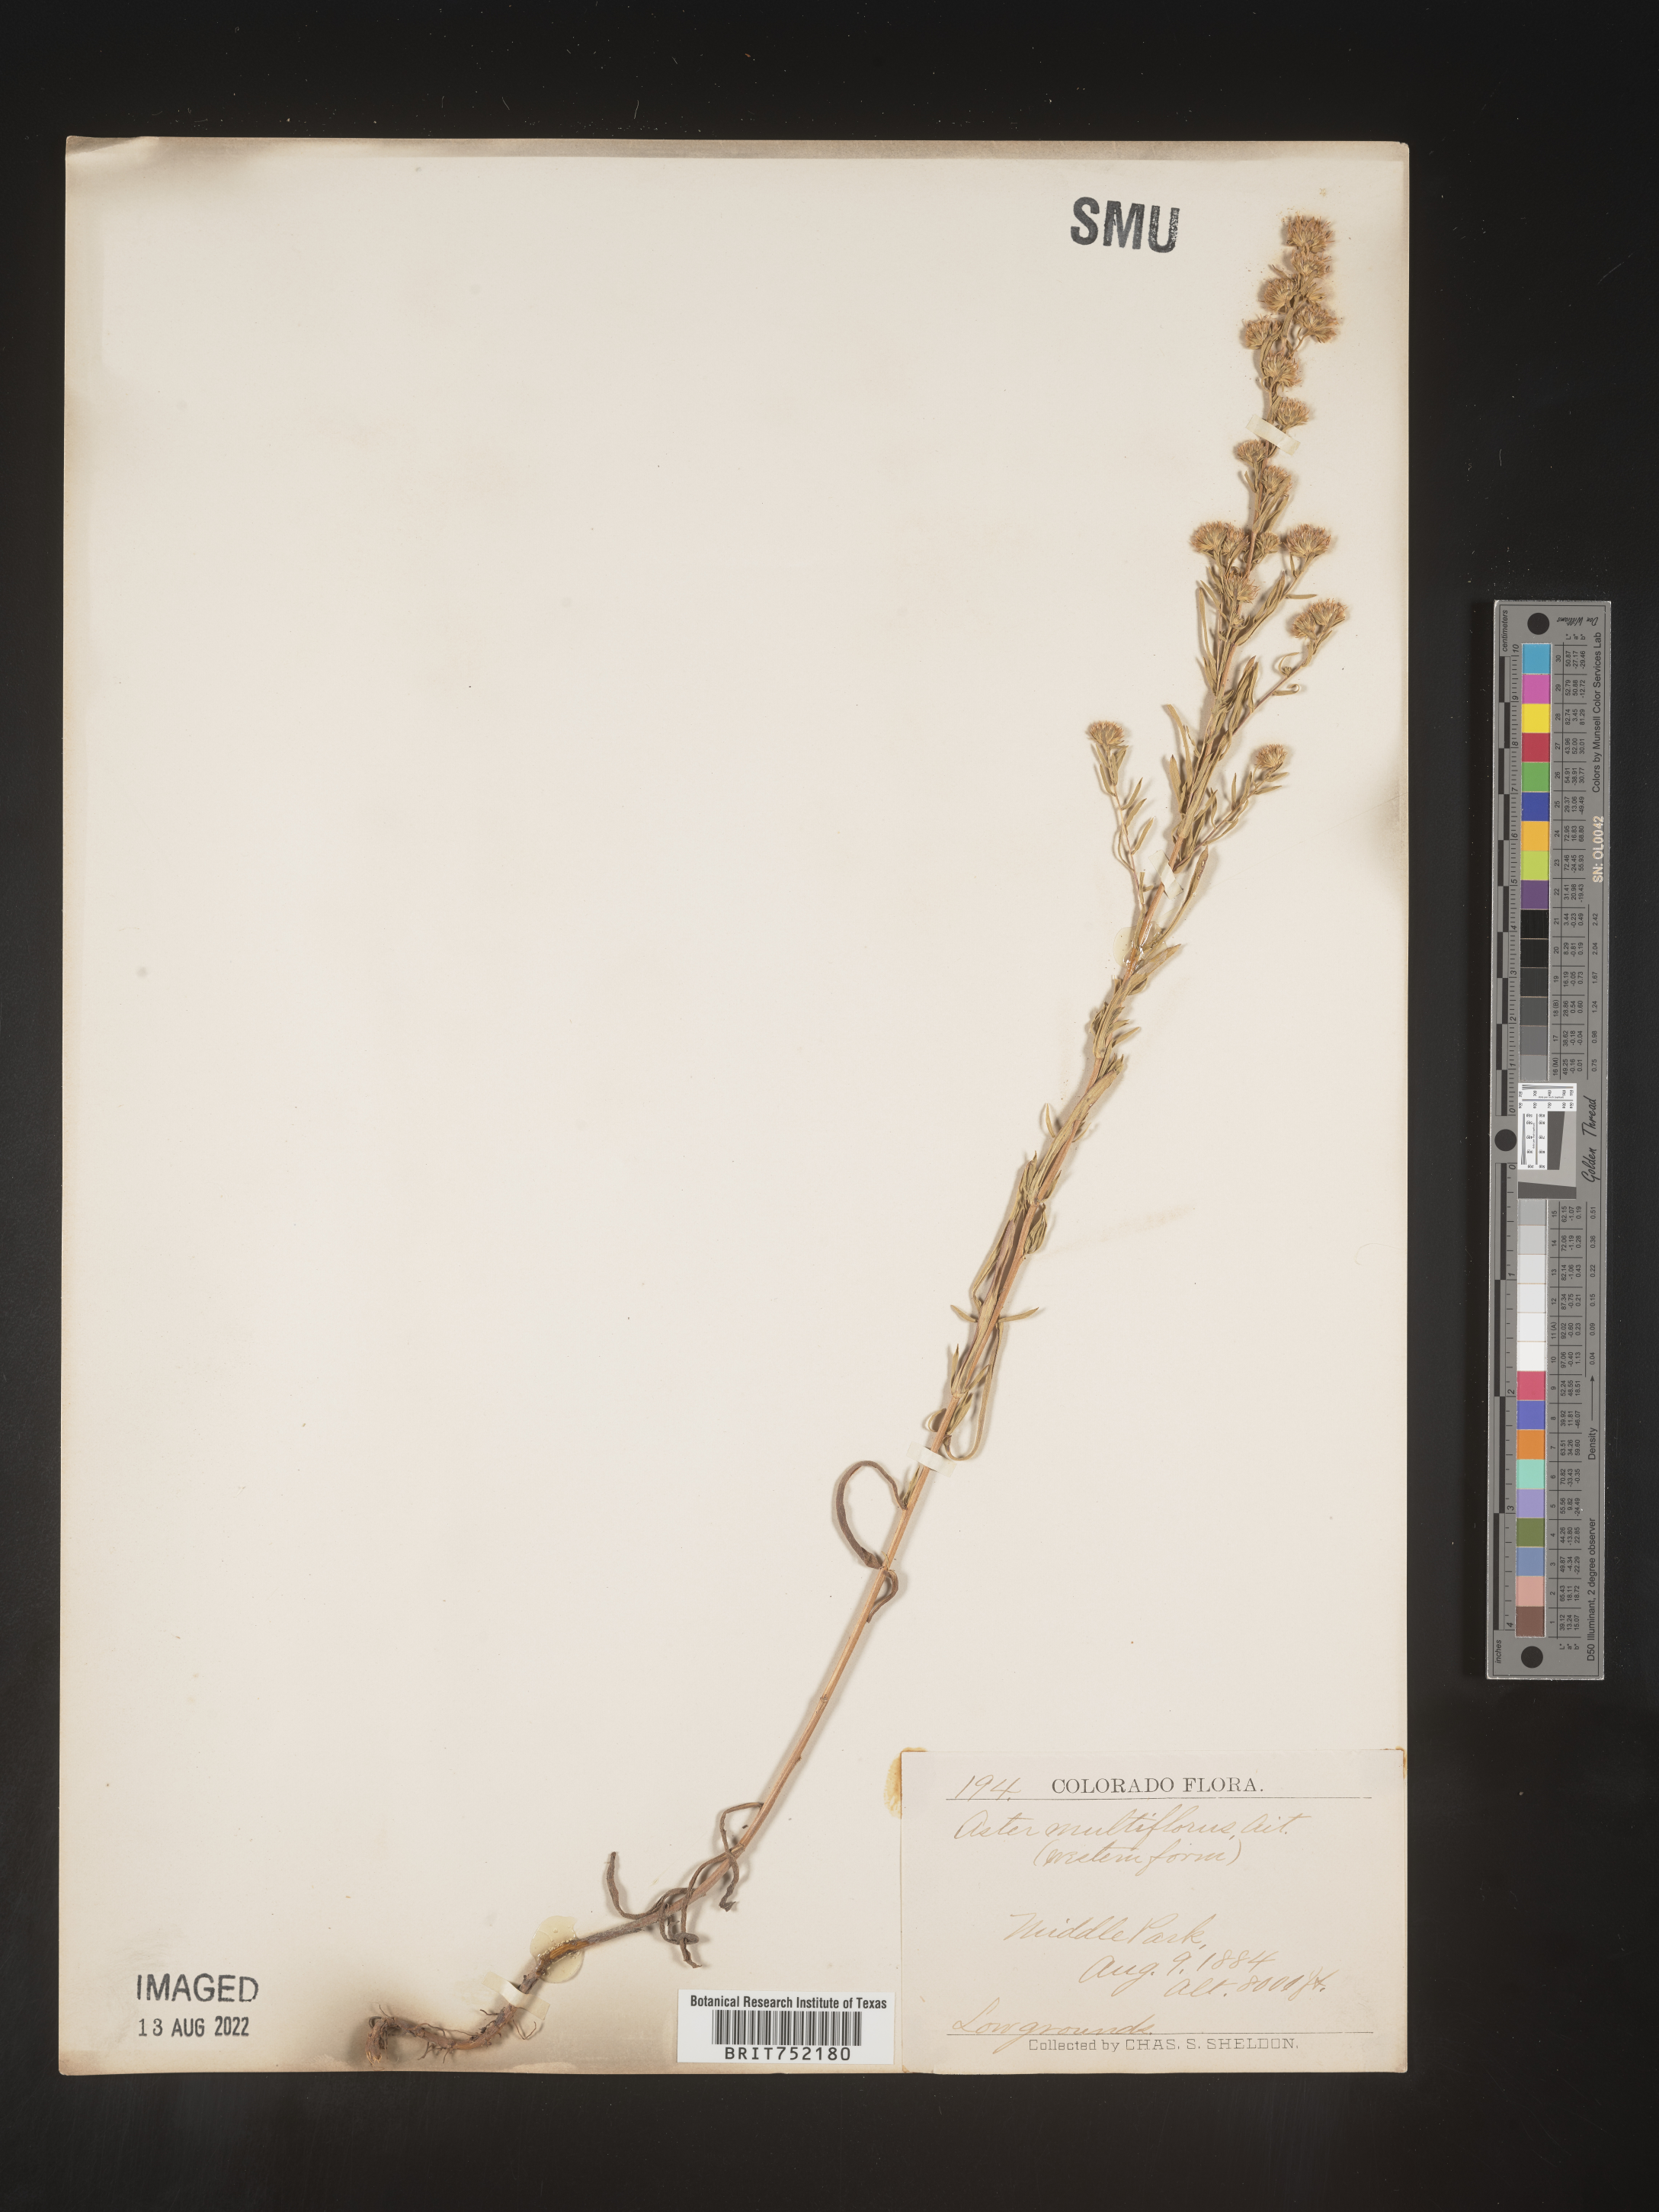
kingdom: Plantae
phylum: Tracheophyta
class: Magnoliopsida
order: Asterales
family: Asteraceae
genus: Symphyotrichum
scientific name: Symphyotrichum ericoides
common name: Heath aster
